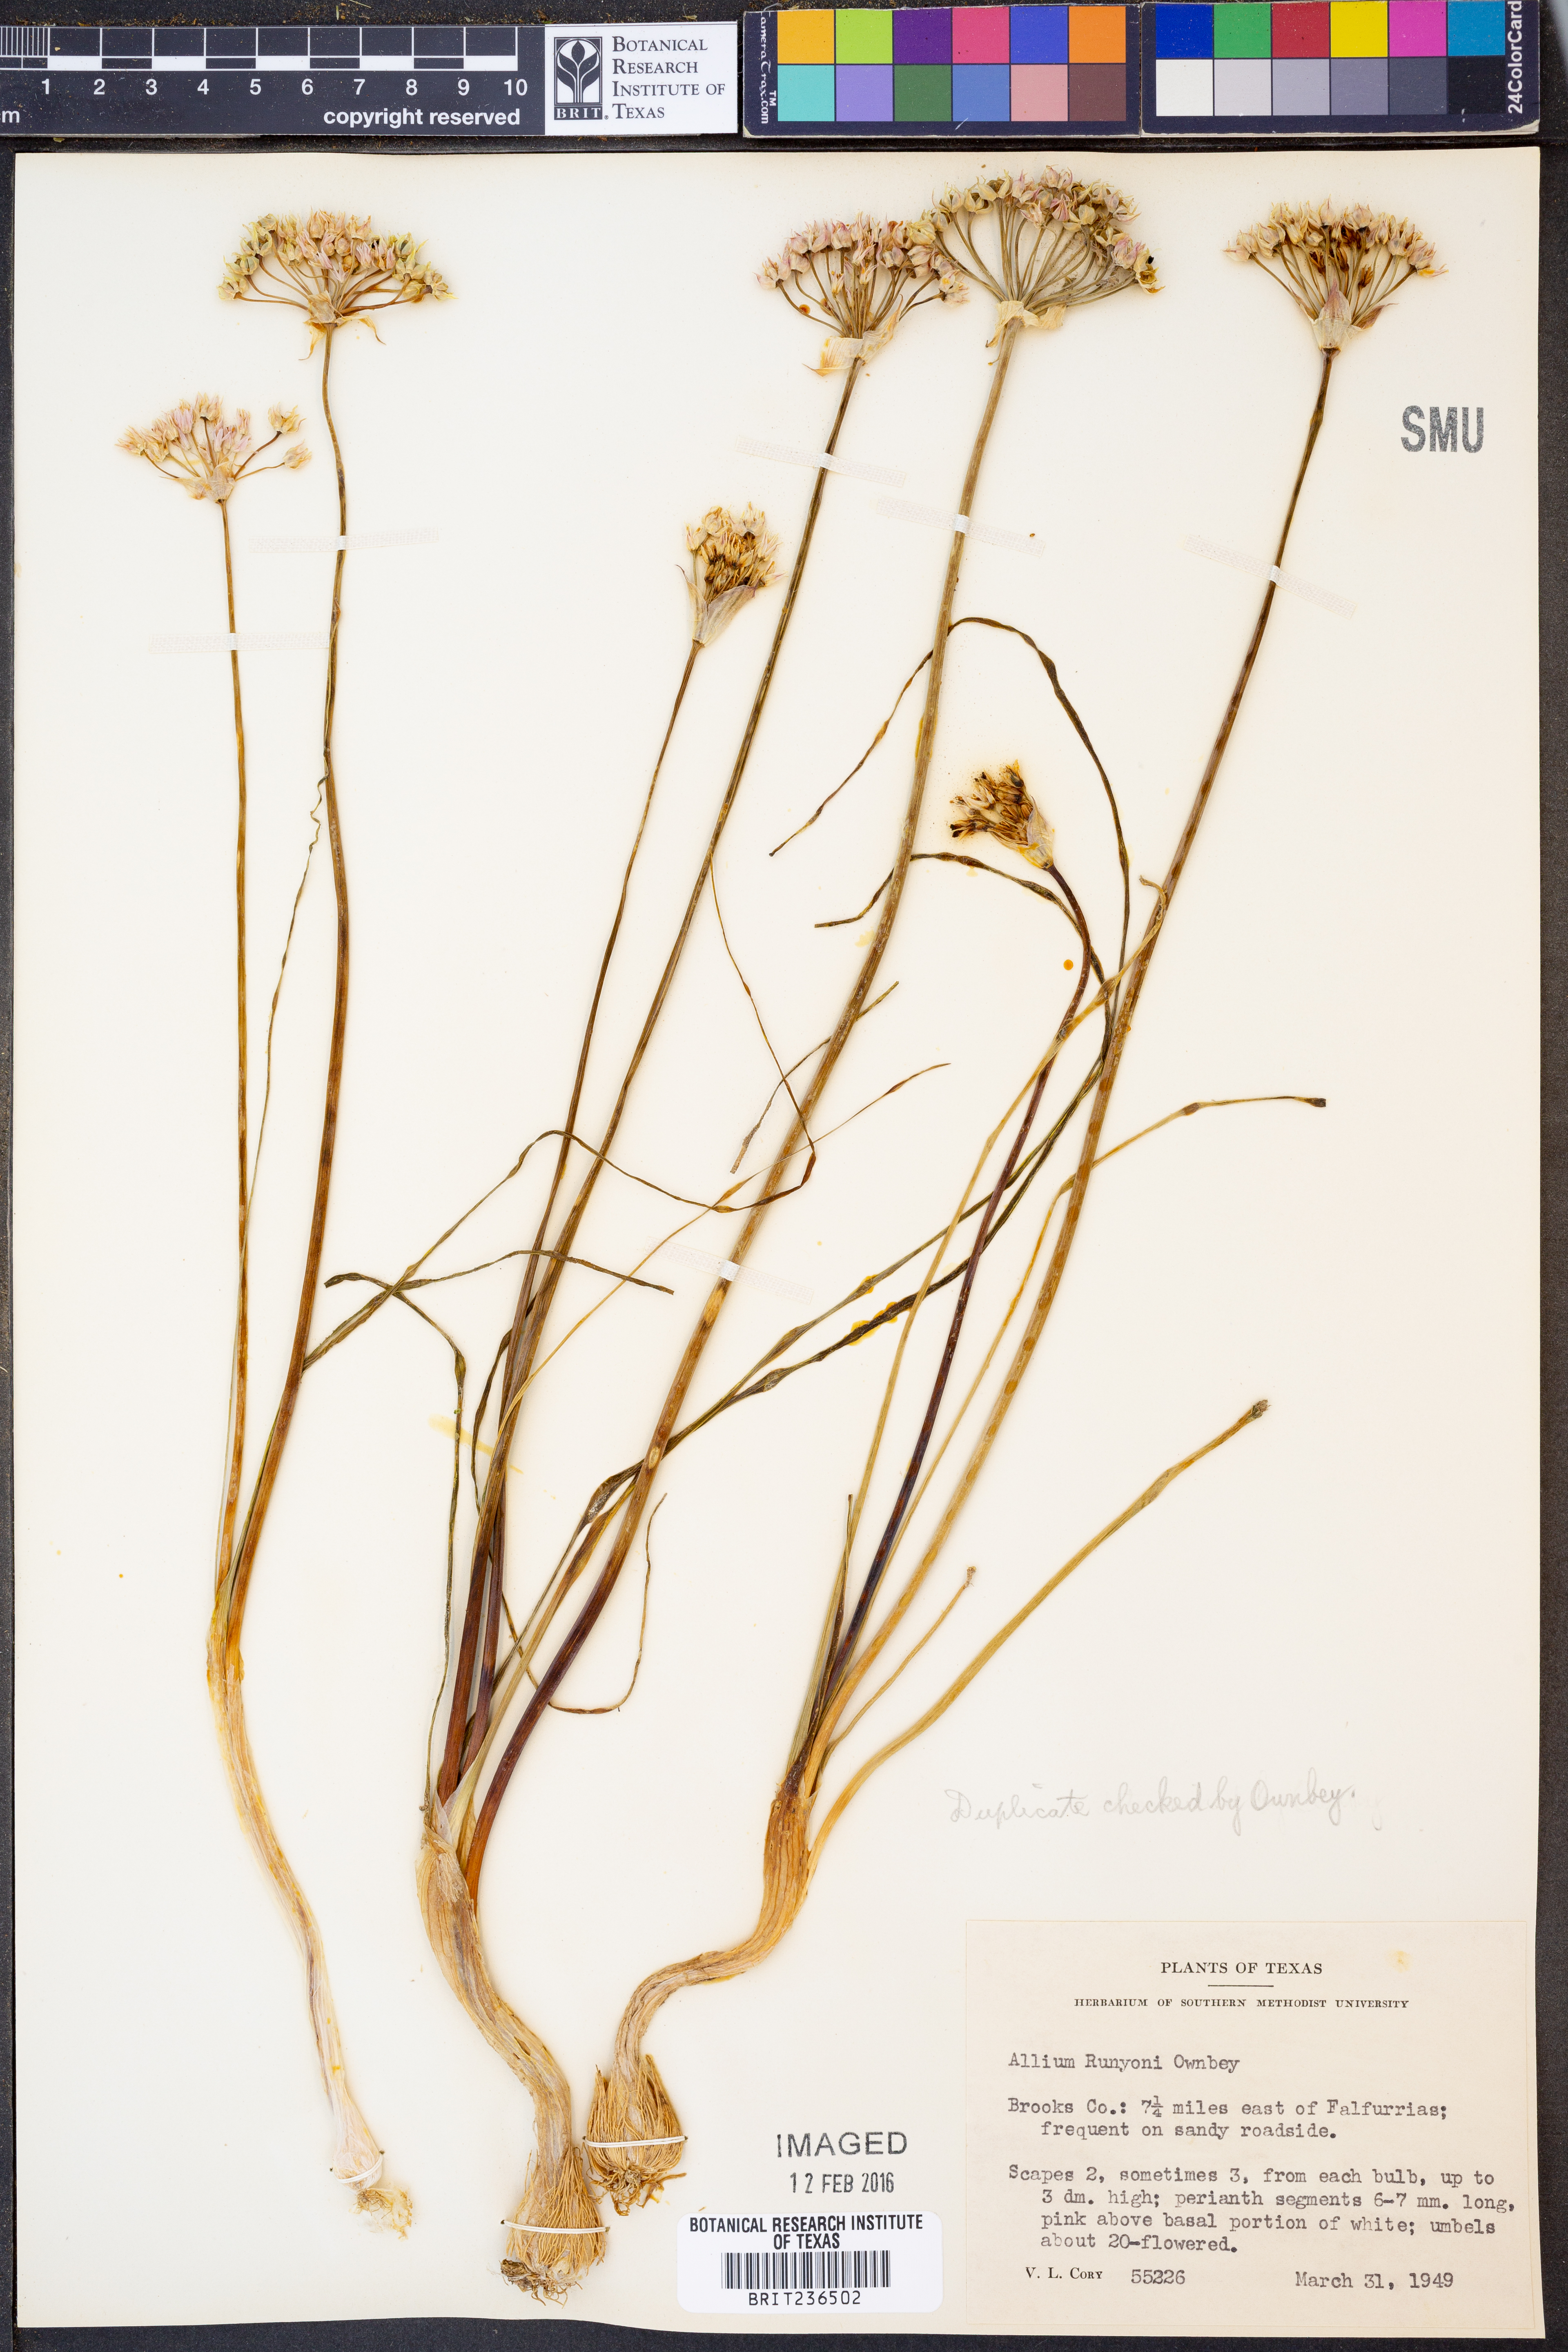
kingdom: Plantae
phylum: Tracheophyta
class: Liliopsida
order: Asparagales
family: Amaryllidaceae
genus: Allium
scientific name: Allium runyonii
